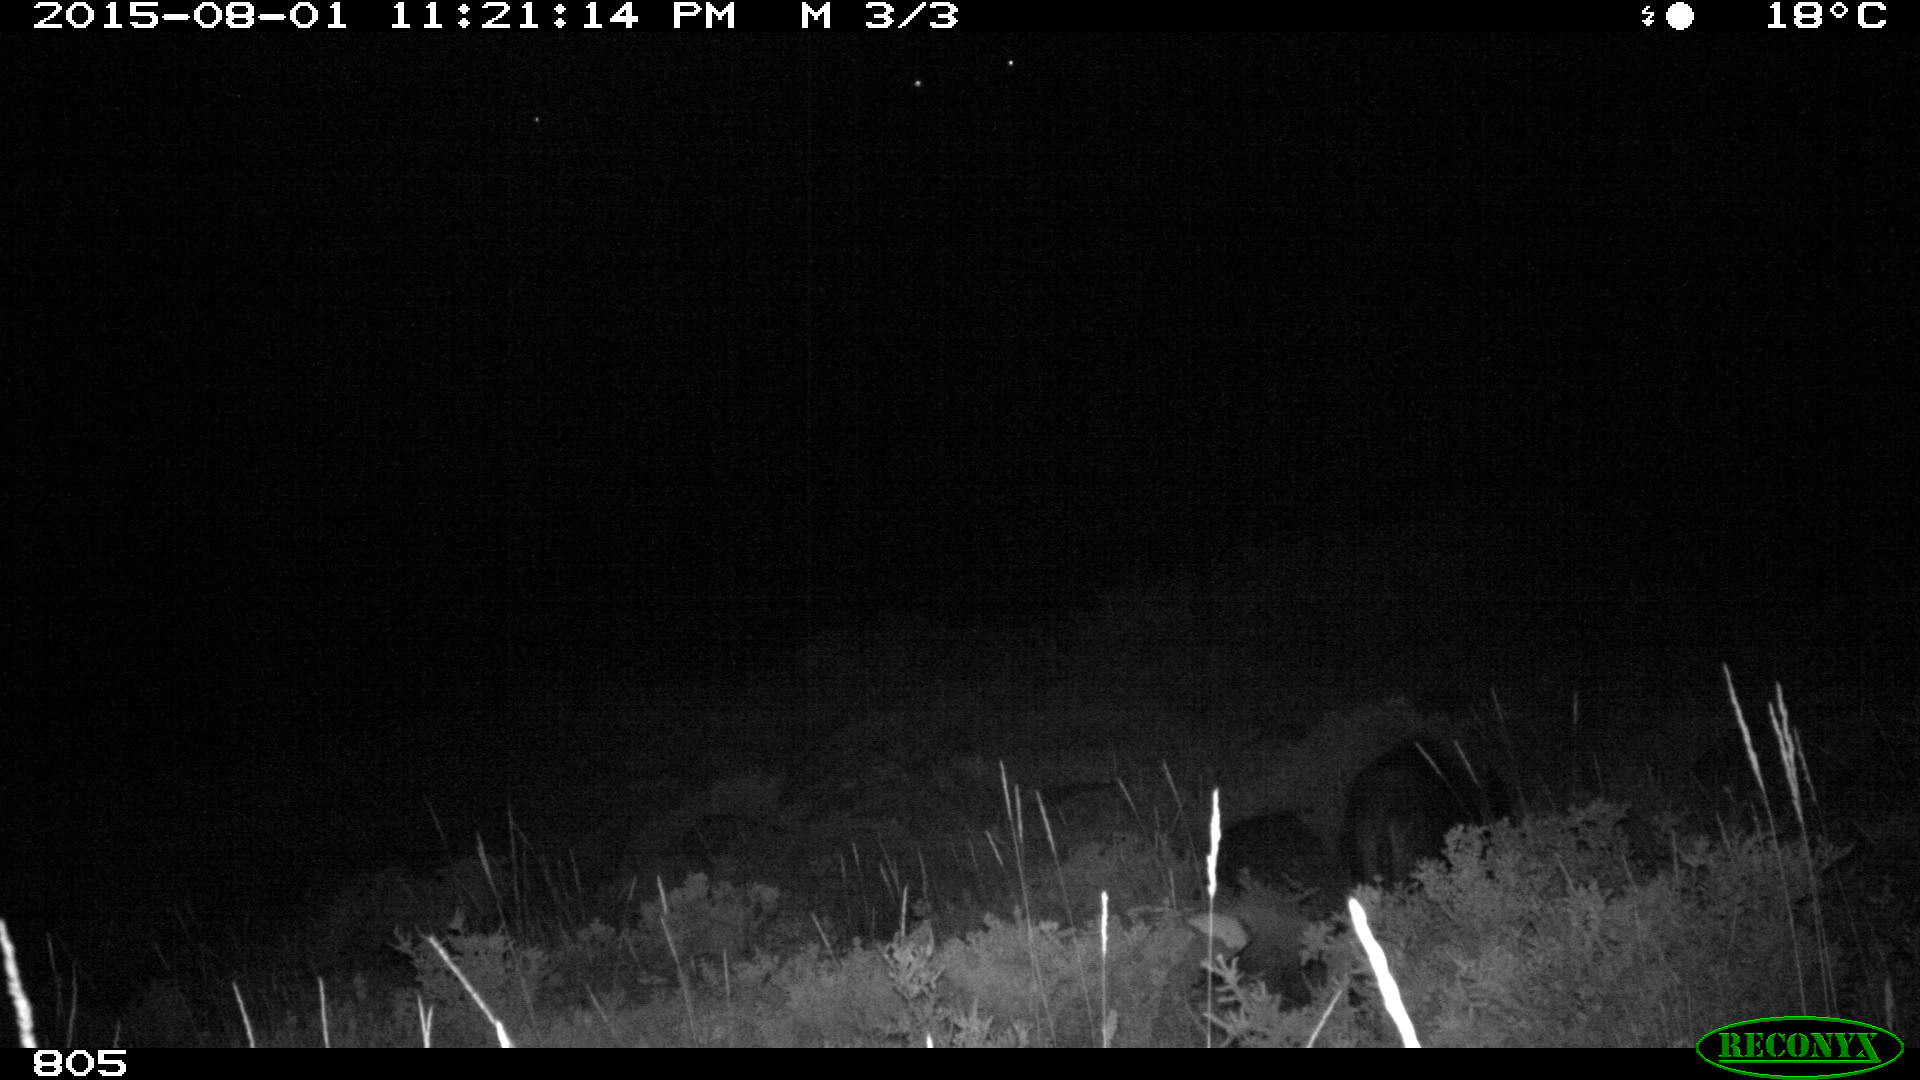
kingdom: Animalia
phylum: Chordata
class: Mammalia
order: Artiodactyla
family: Suidae
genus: Sus
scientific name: Sus scrofa
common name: Wild boar
